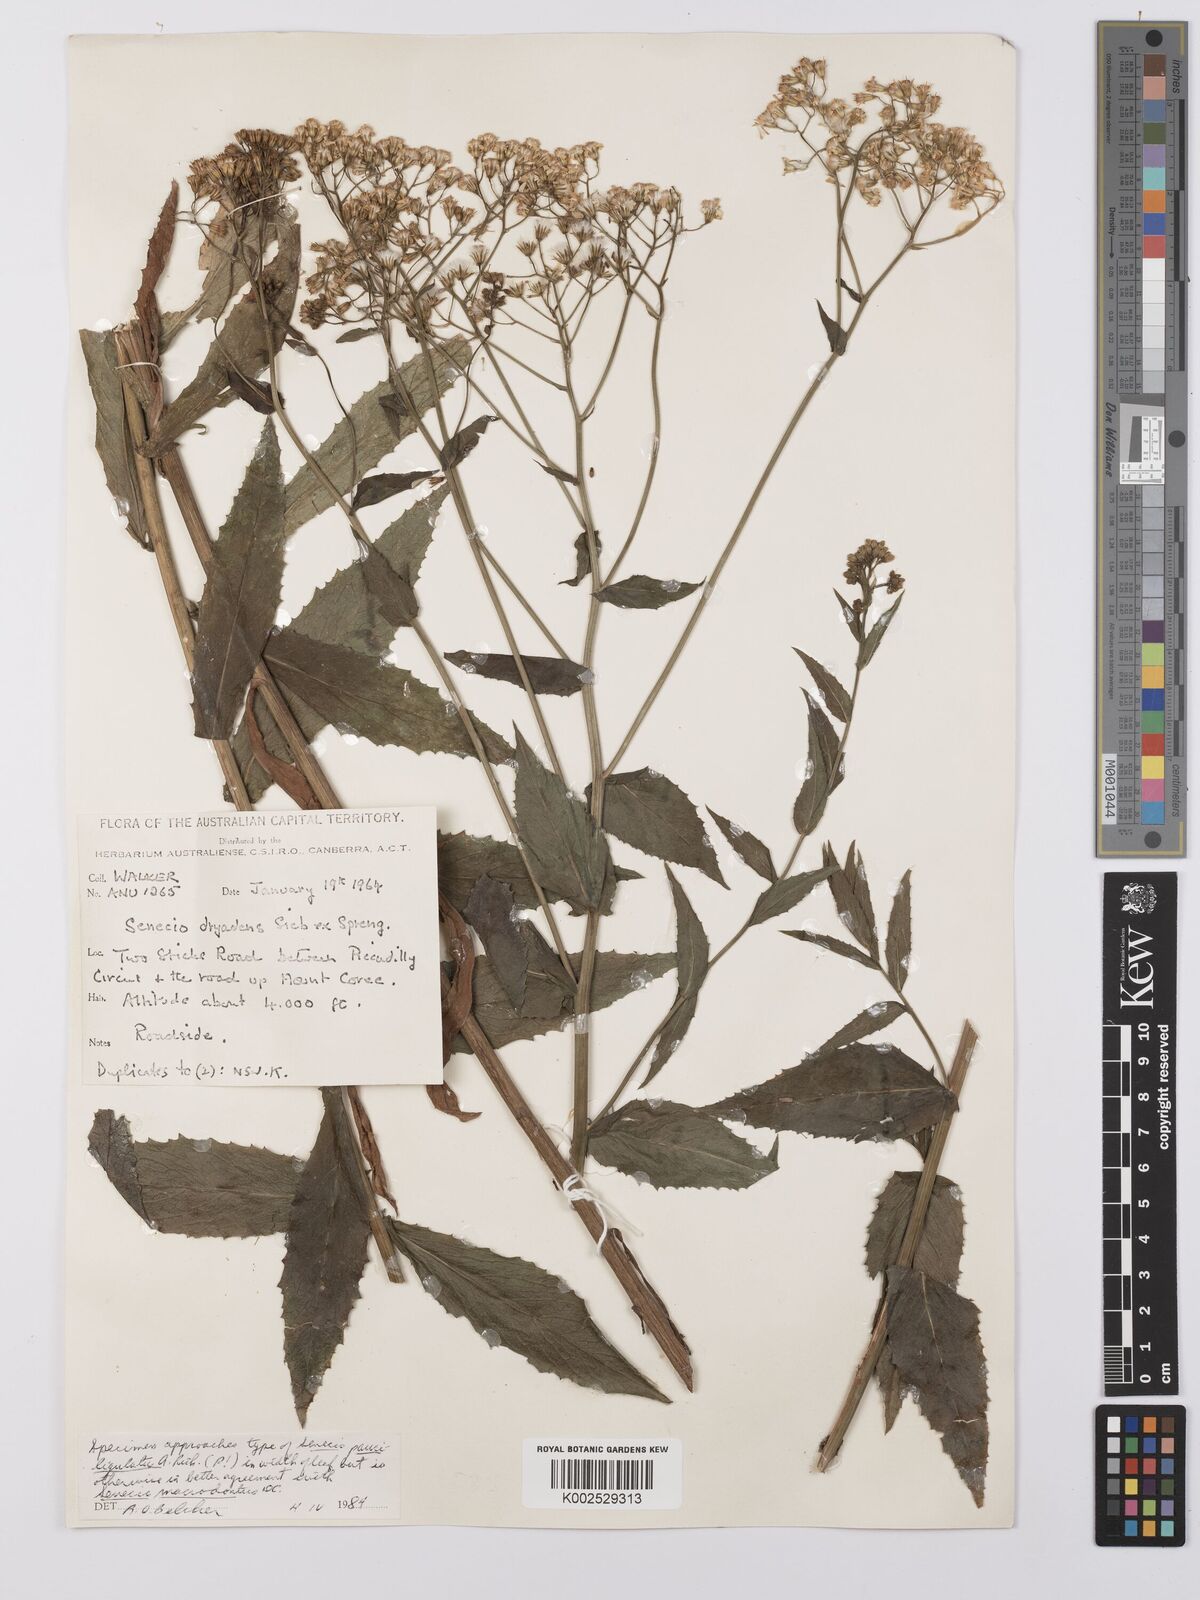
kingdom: Plantae
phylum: Tracheophyta
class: Magnoliopsida
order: Asterales
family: Asteraceae
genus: Senecio
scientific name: Senecio linearifolius
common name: Fireweed groundsel
